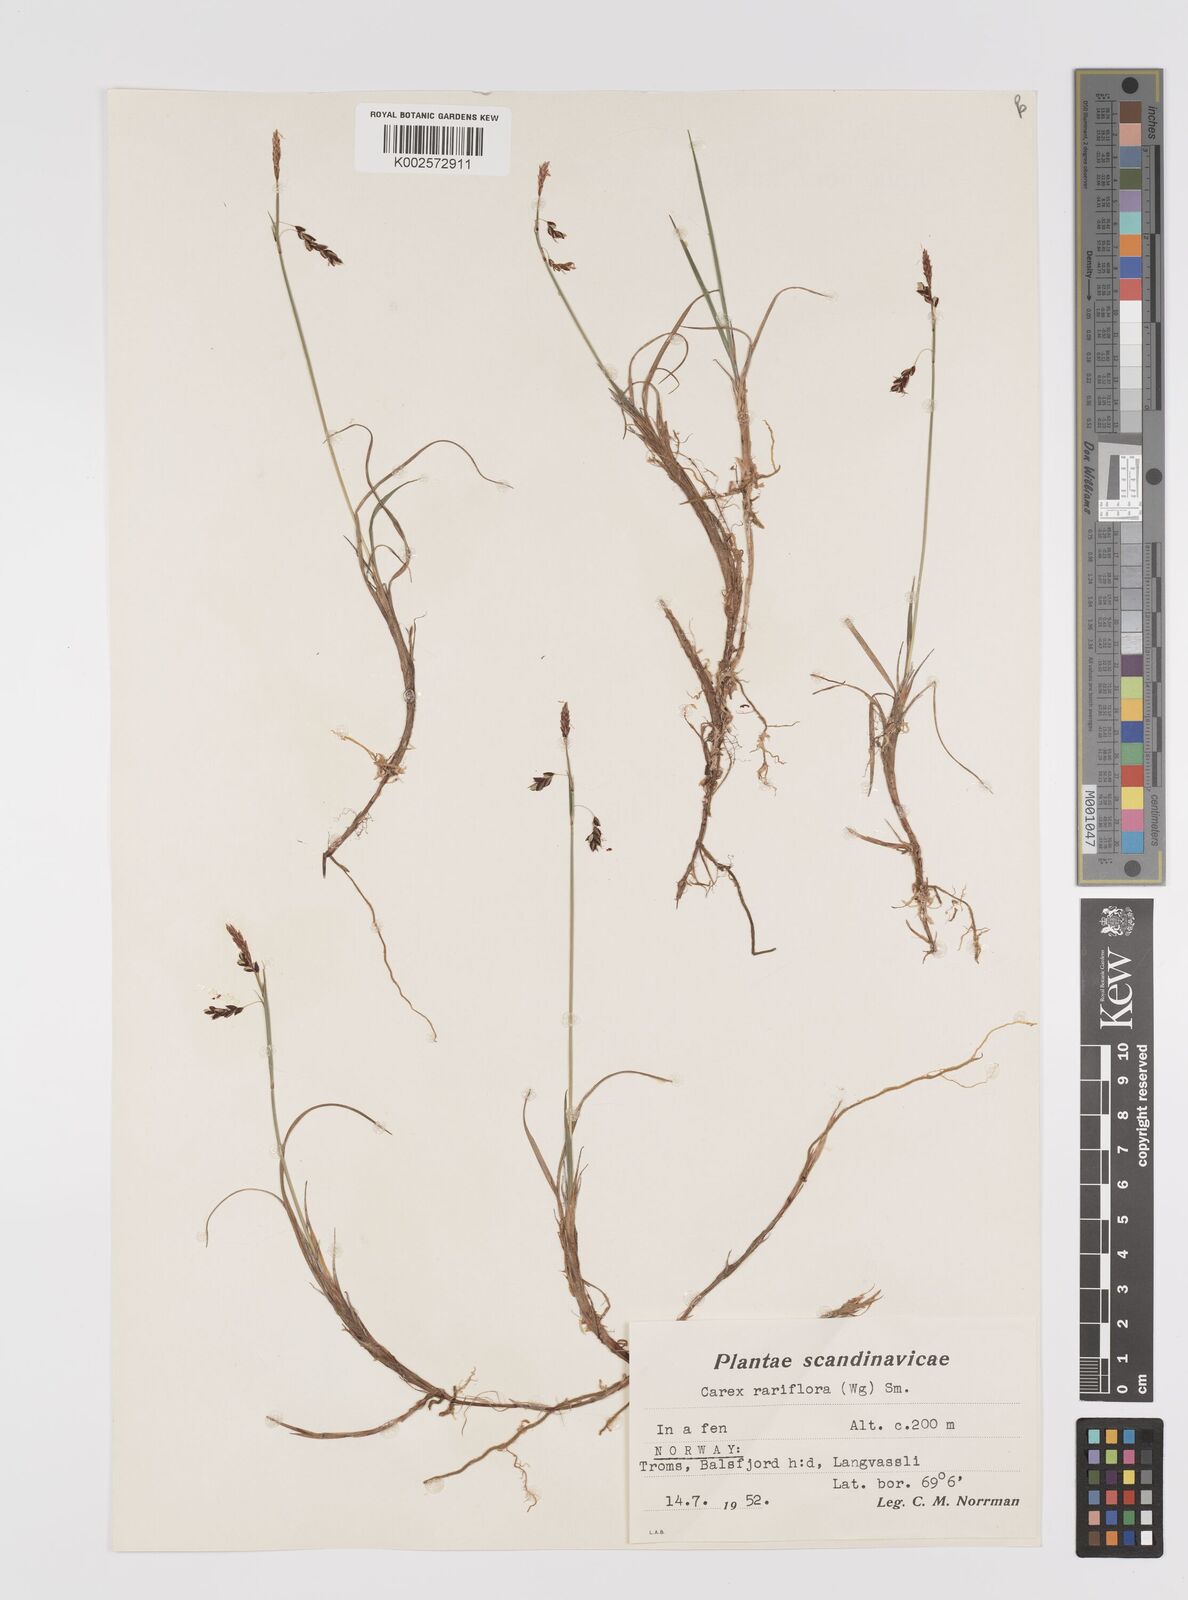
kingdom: Plantae
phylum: Tracheophyta
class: Liliopsida
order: Poales
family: Cyperaceae
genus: Carex
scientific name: Carex rariflora
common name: Loose-flowered alpine sedge
